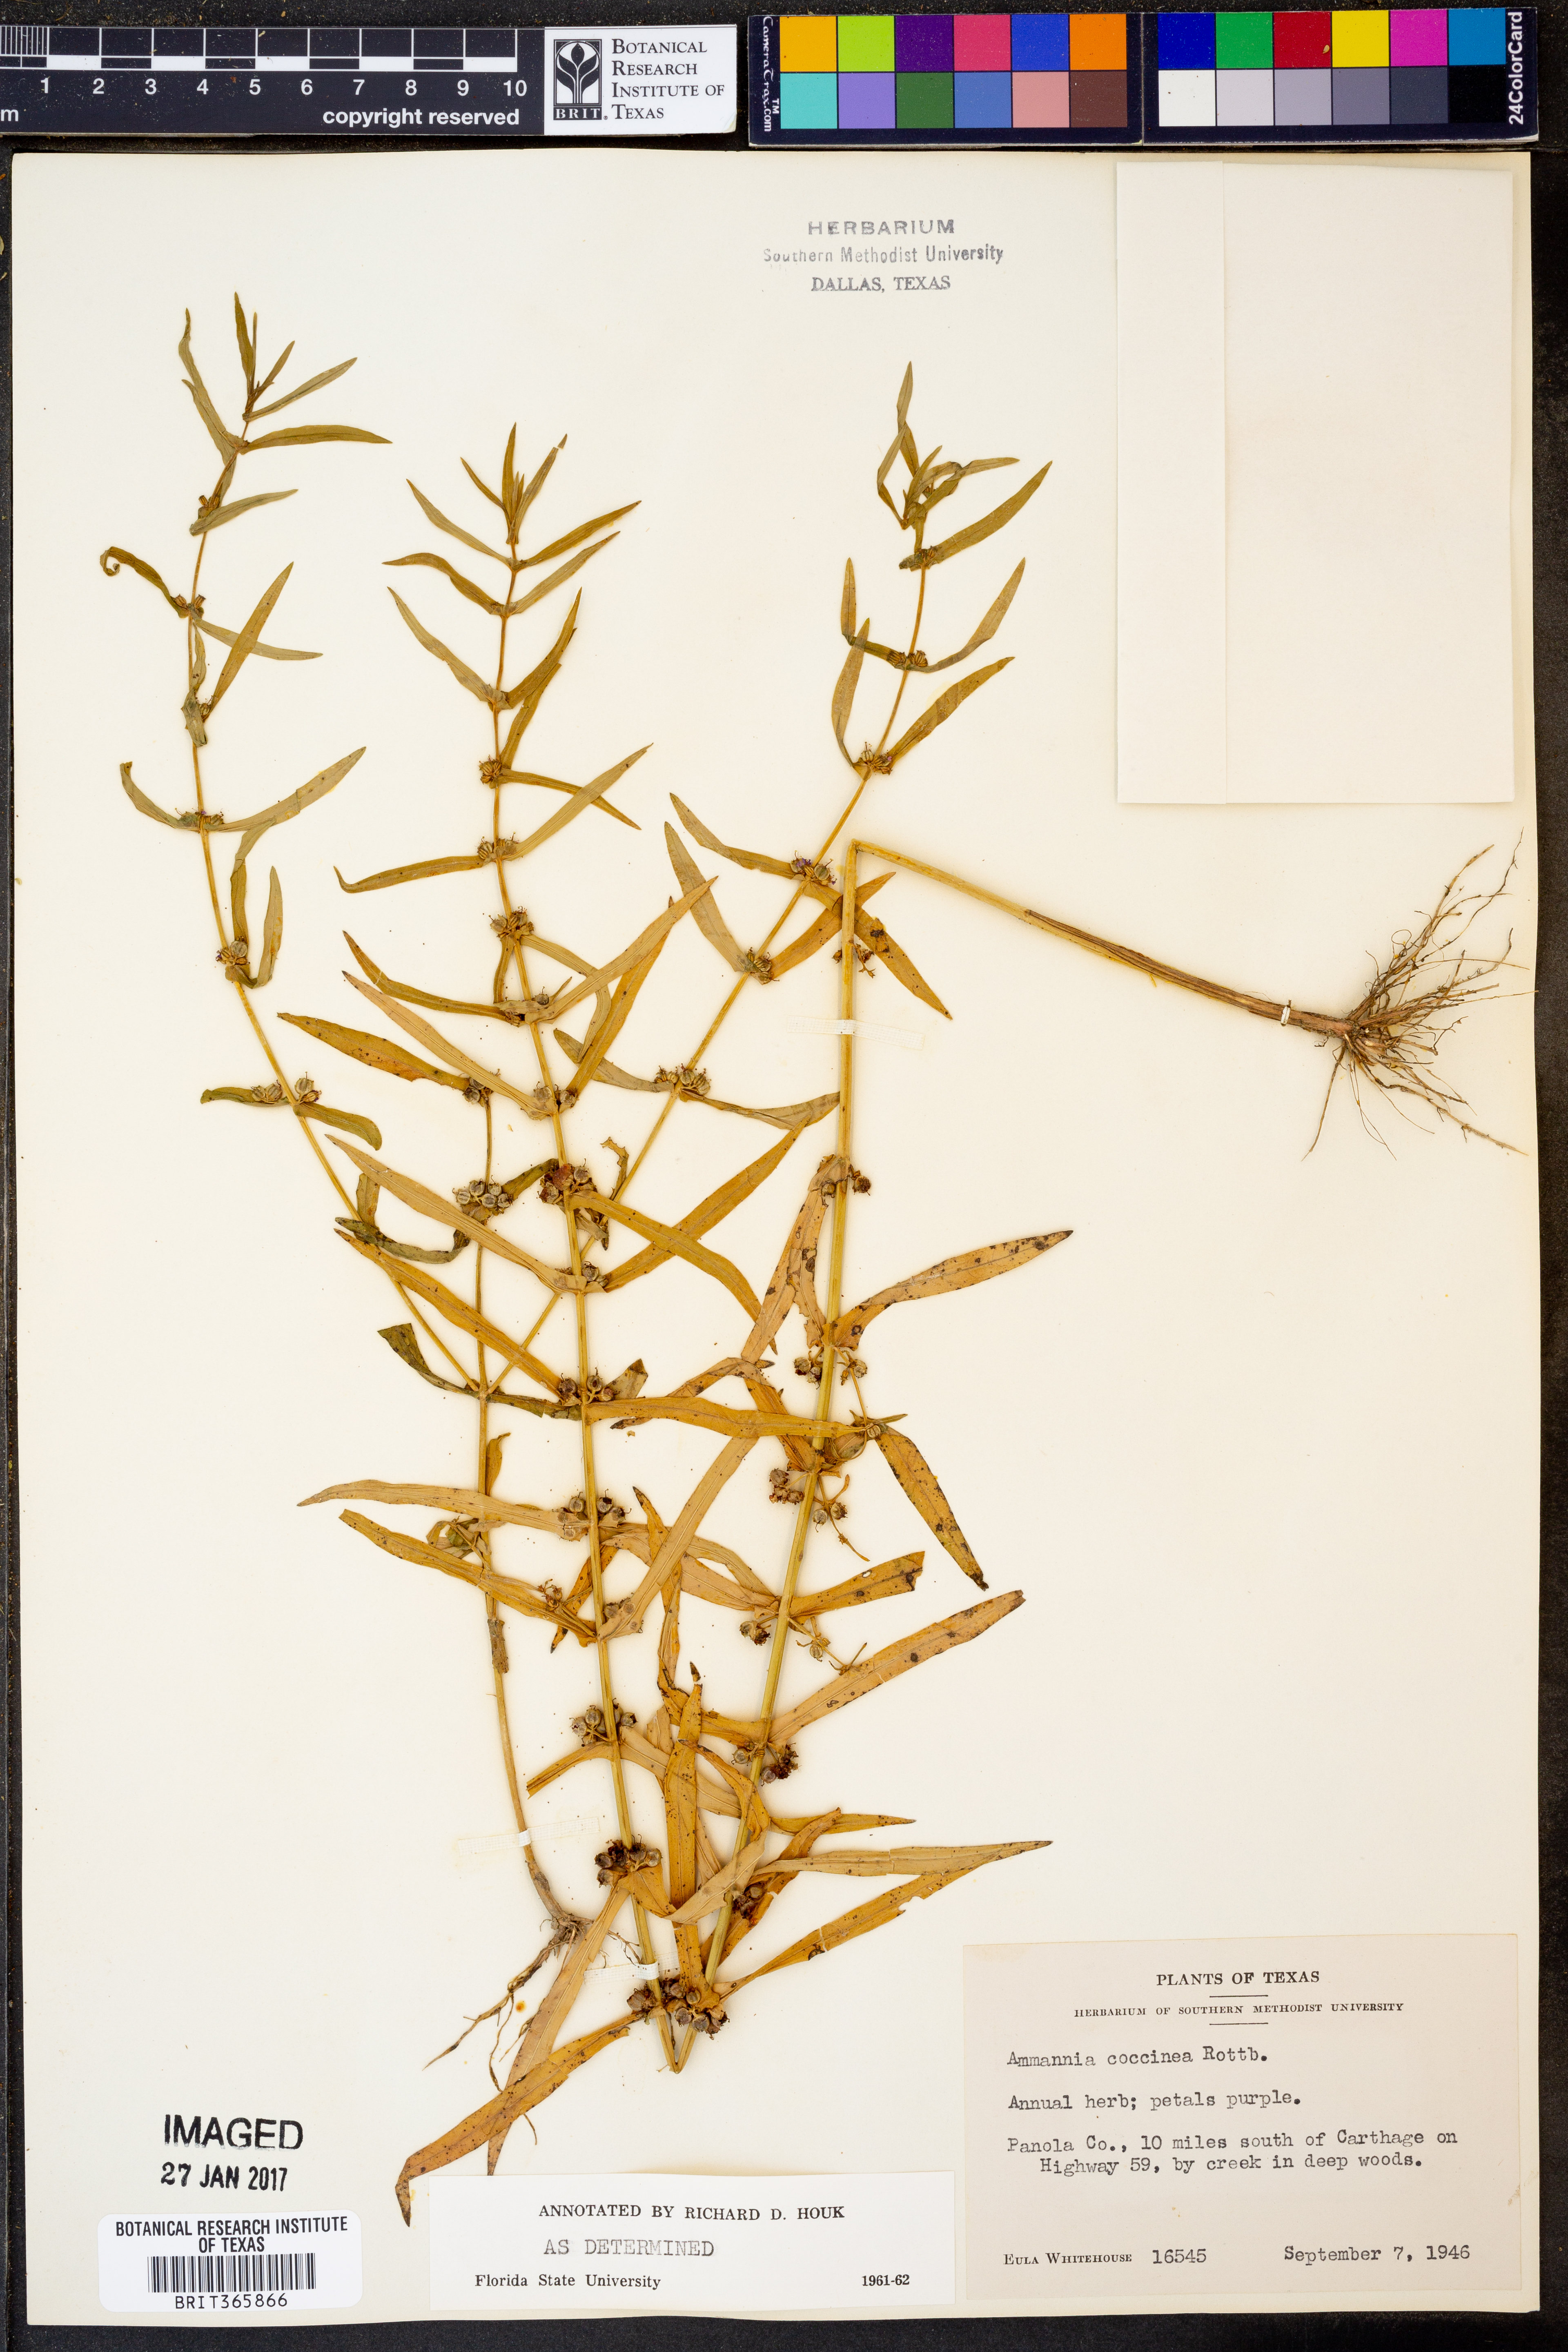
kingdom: Plantae
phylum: Tracheophyta
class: Magnoliopsida
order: Myrtales
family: Lythraceae
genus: Ammannia
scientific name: Ammannia coccinea
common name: Valley redstem
